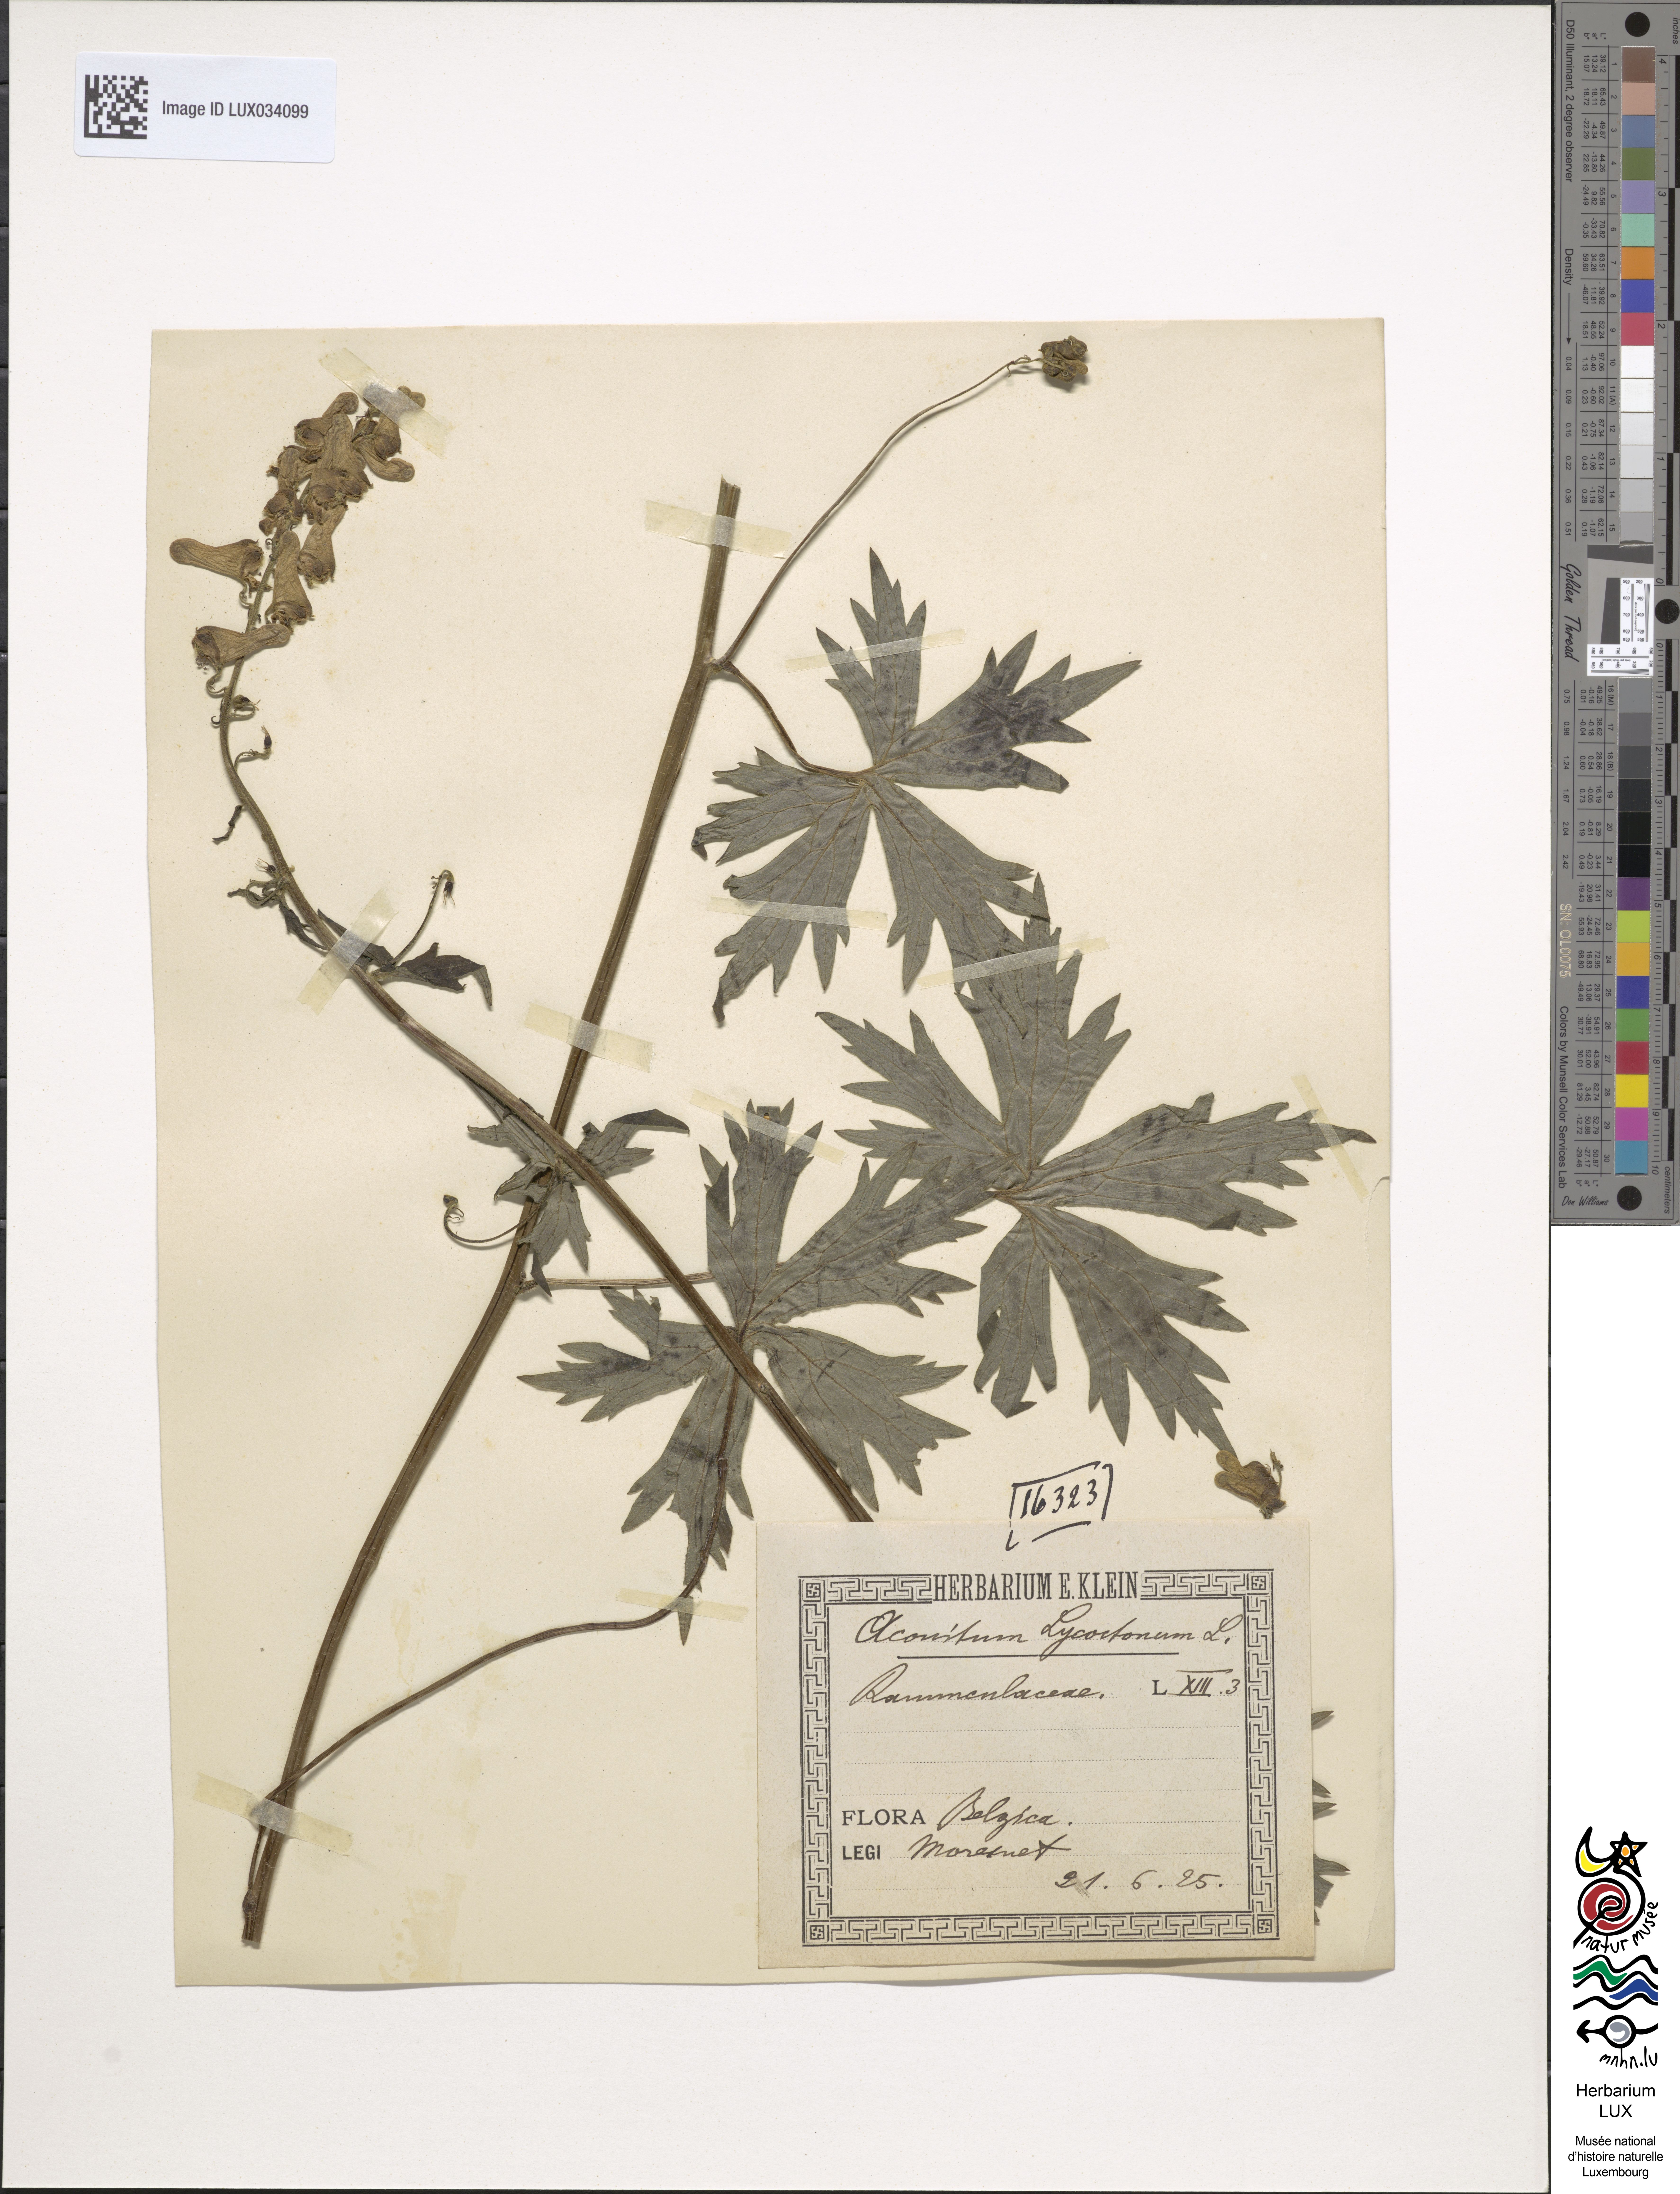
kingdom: Plantae
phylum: Tracheophyta
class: Magnoliopsida
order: Ranunculales
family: Ranunculaceae
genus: Aconitum
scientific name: Aconitum lycoctonum
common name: Wolf's-bane
